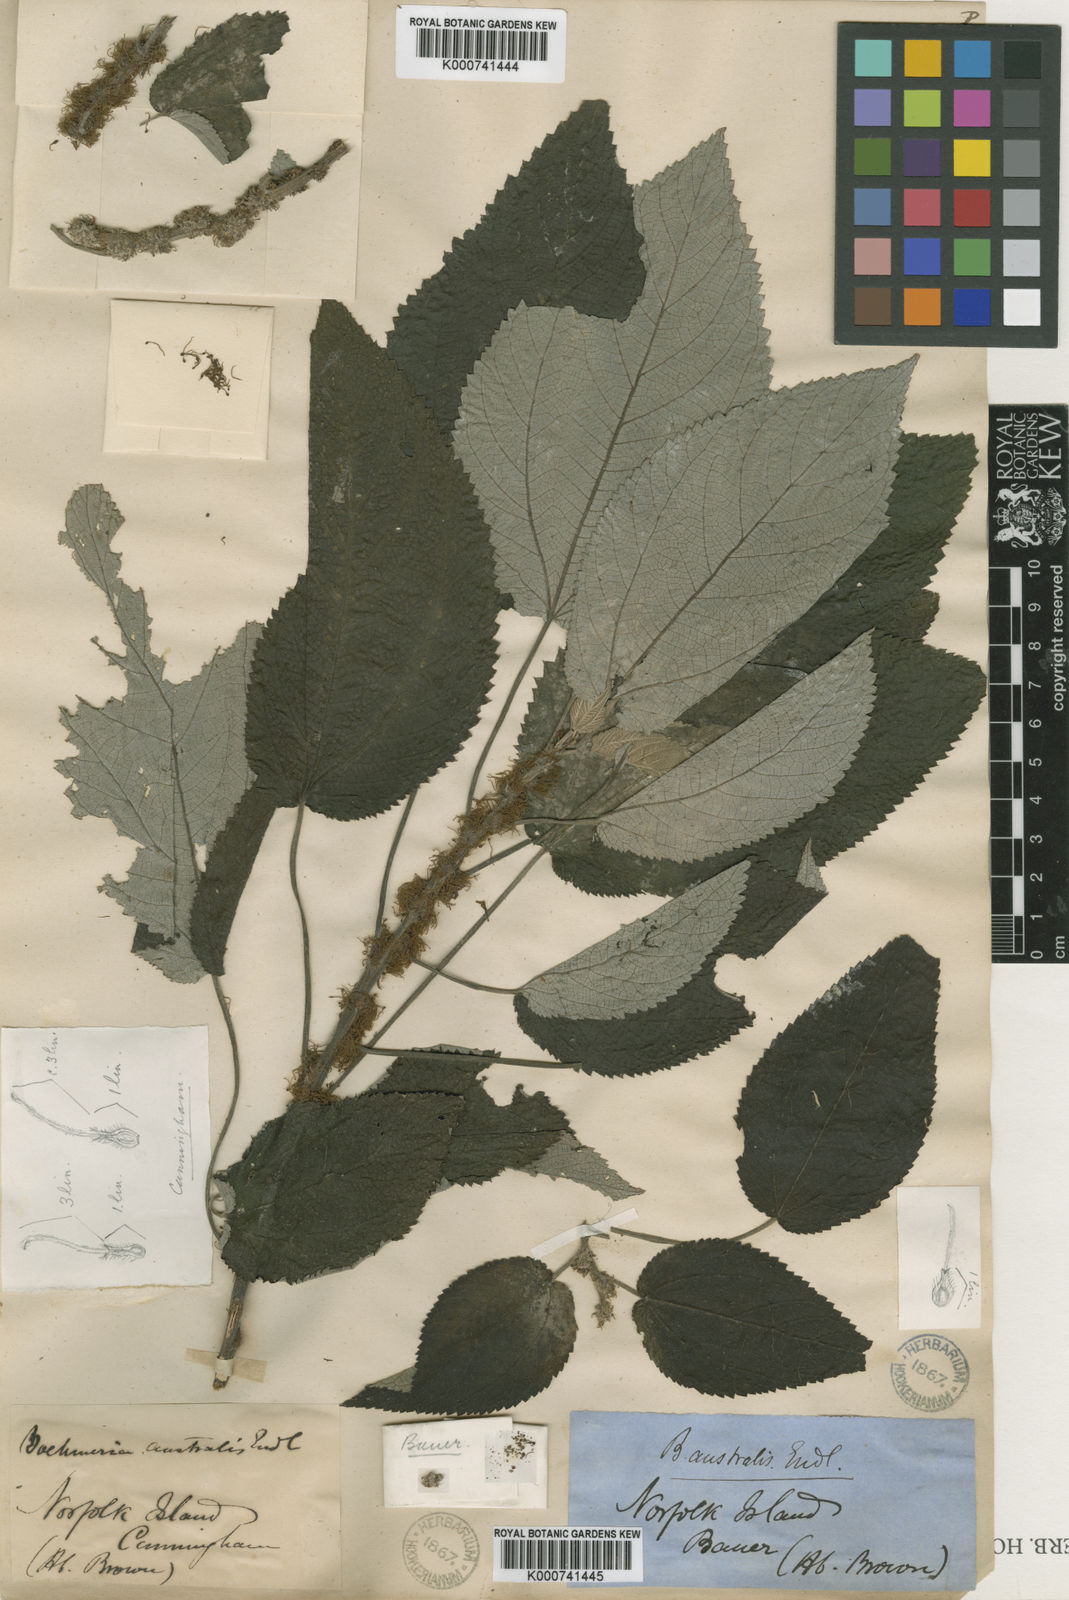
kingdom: Plantae
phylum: Tracheophyta
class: Magnoliopsida
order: Rosales
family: Urticaceae
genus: Pouzolzia
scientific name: Pouzolzia zeylanica
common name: Graceful pouzolzsbush
